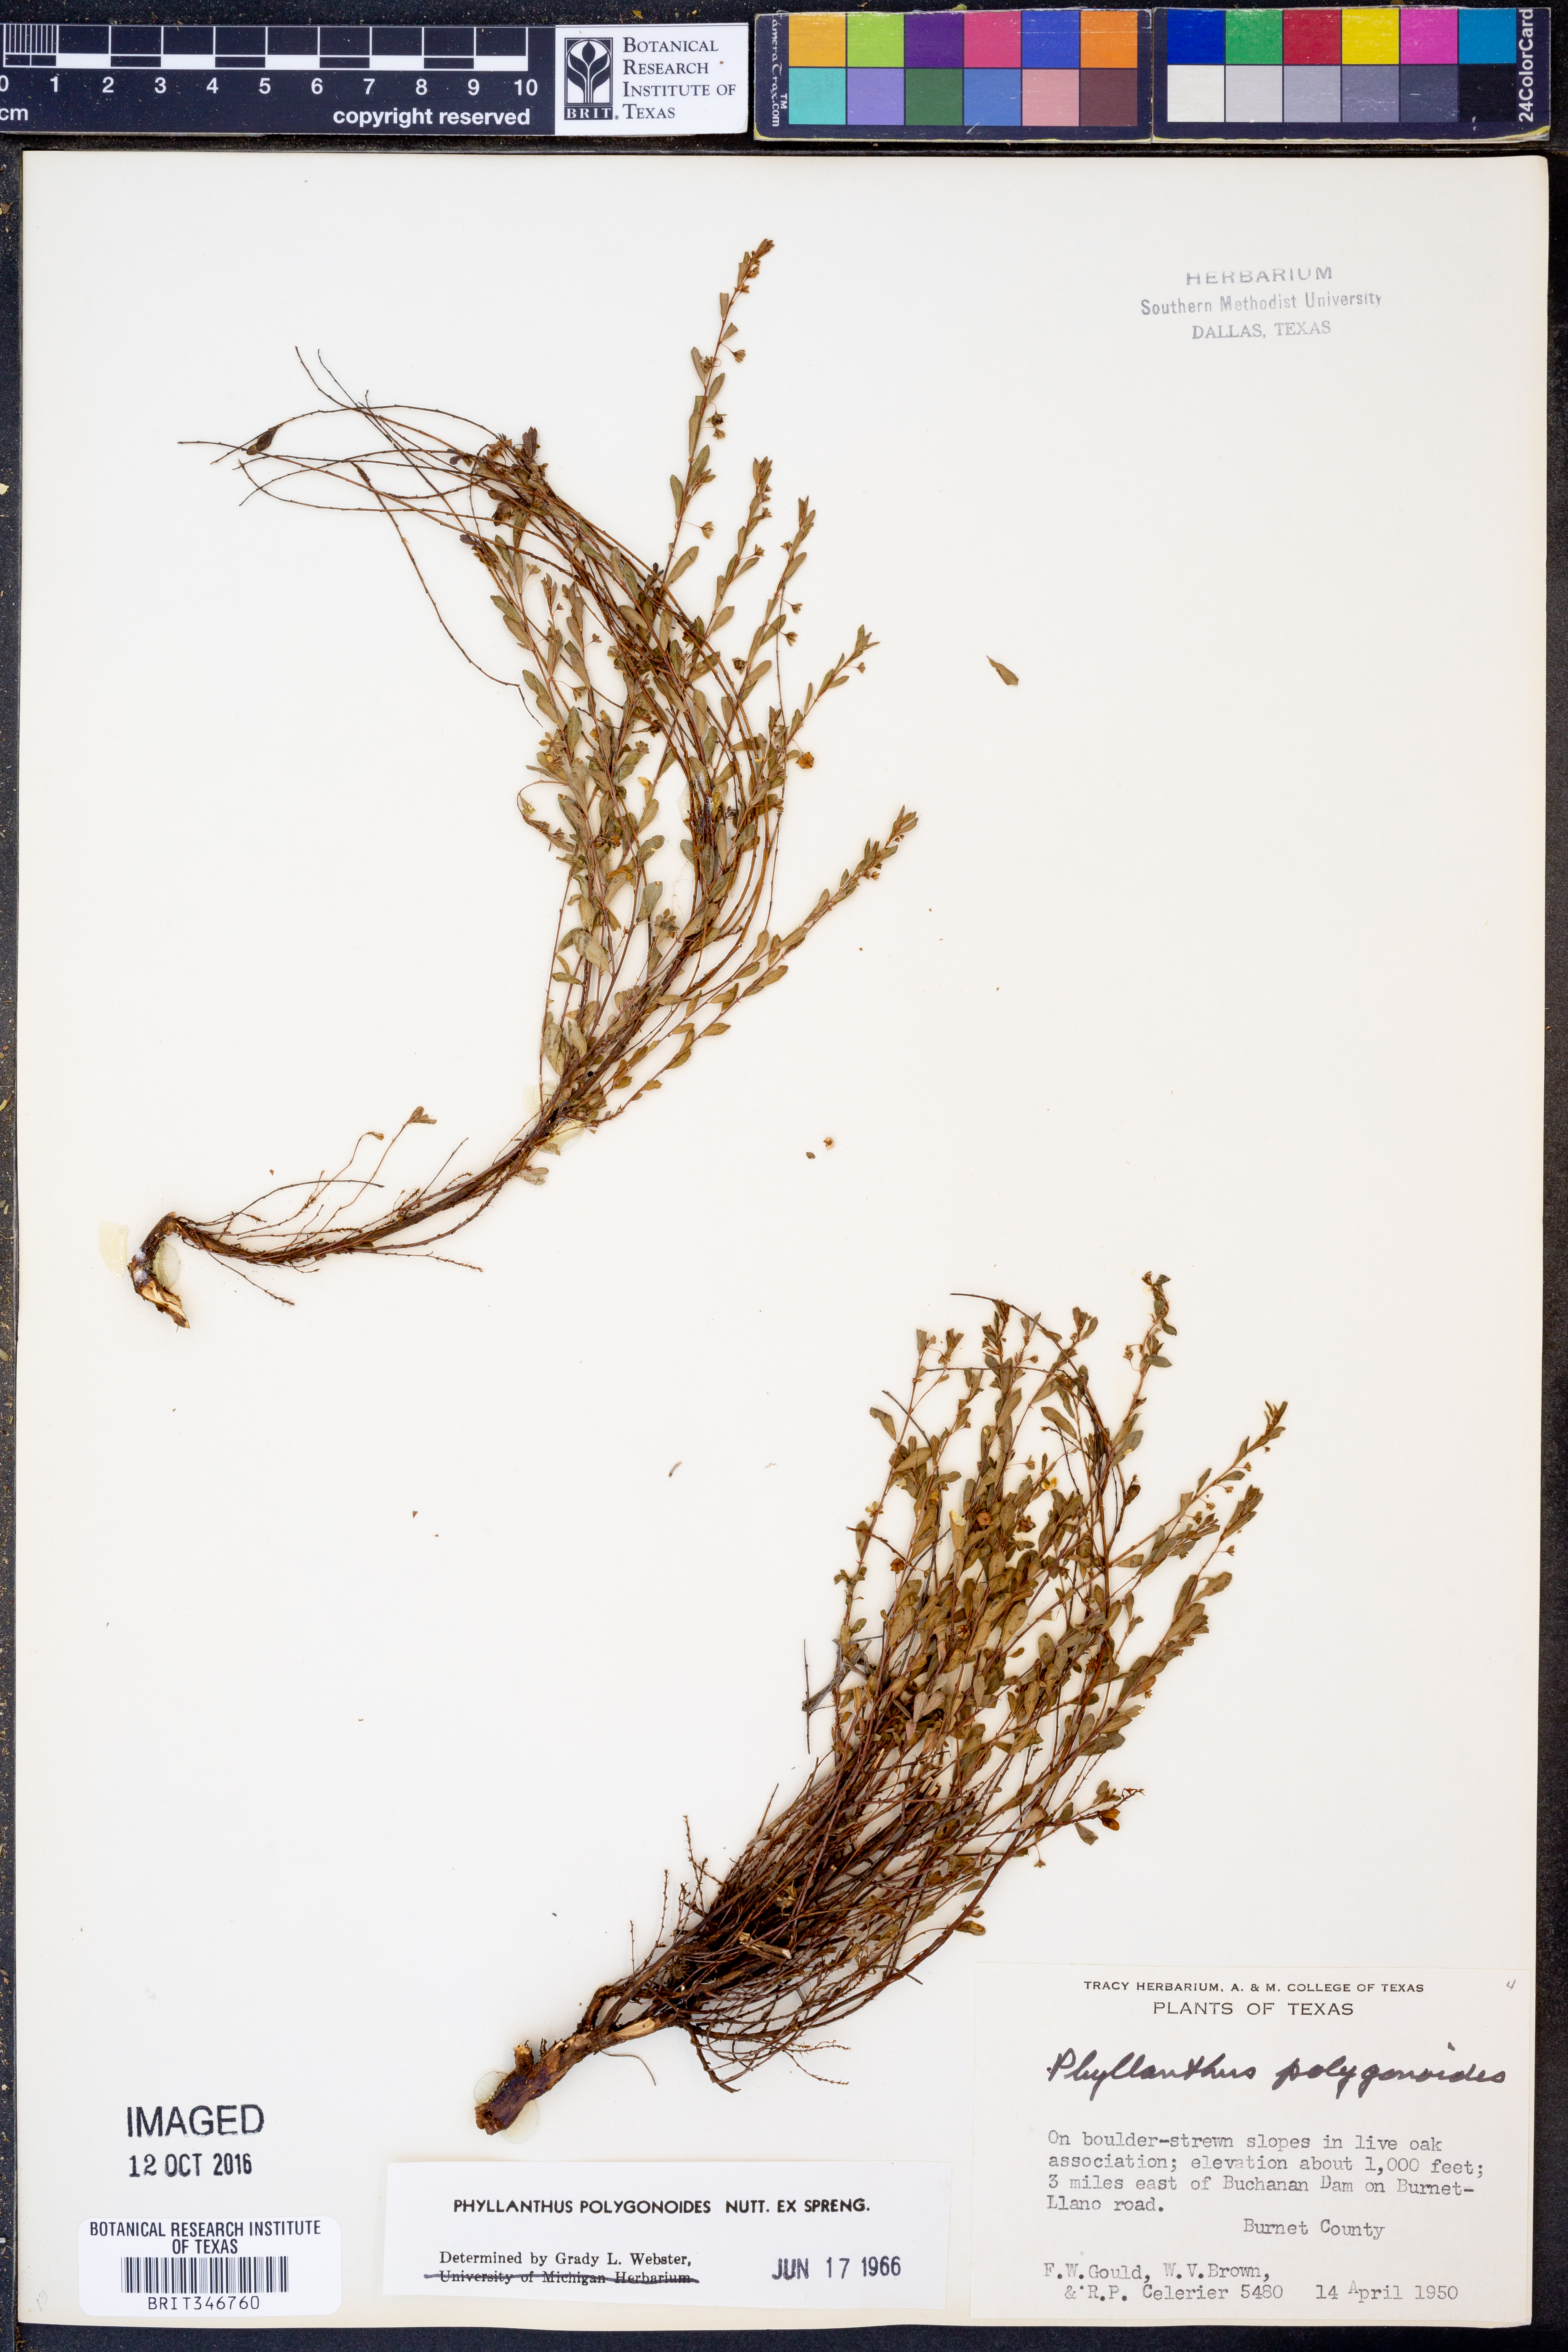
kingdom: Plantae
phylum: Tracheophyta
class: Magnoliopsida
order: Malpighiales
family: Phyllanthaceae
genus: Phyllanthus
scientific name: Phyllanthus polygonoides
